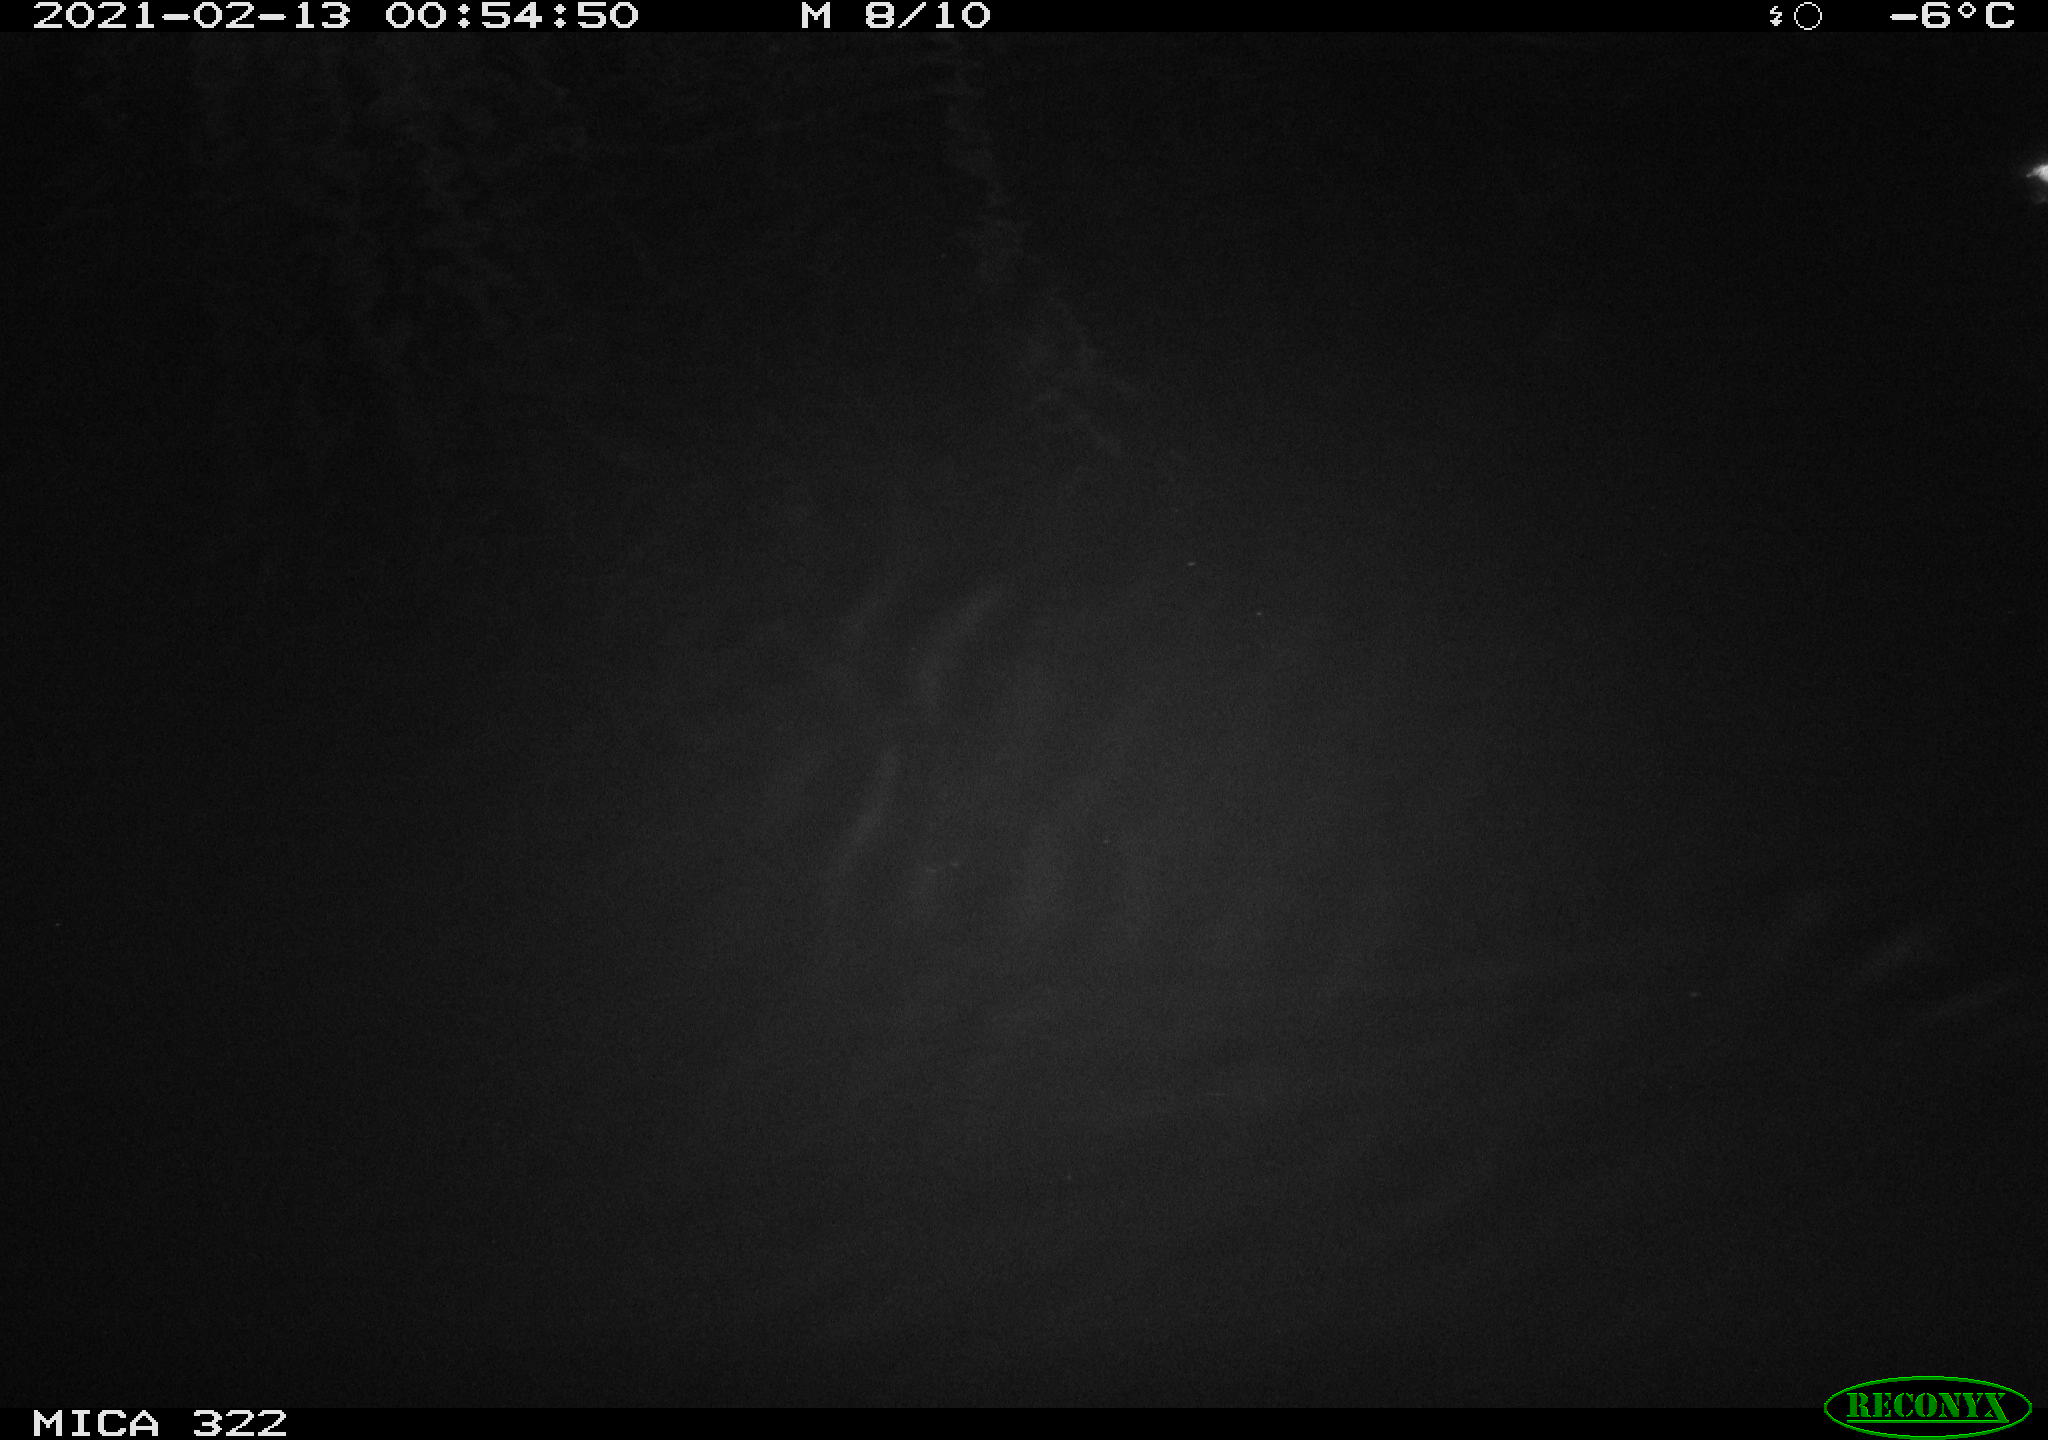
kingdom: Animalia
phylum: Chordata
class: Aves
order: Anseriformes
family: Anatidae
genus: Mareca
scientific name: Mareca strepera
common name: Gadwall
